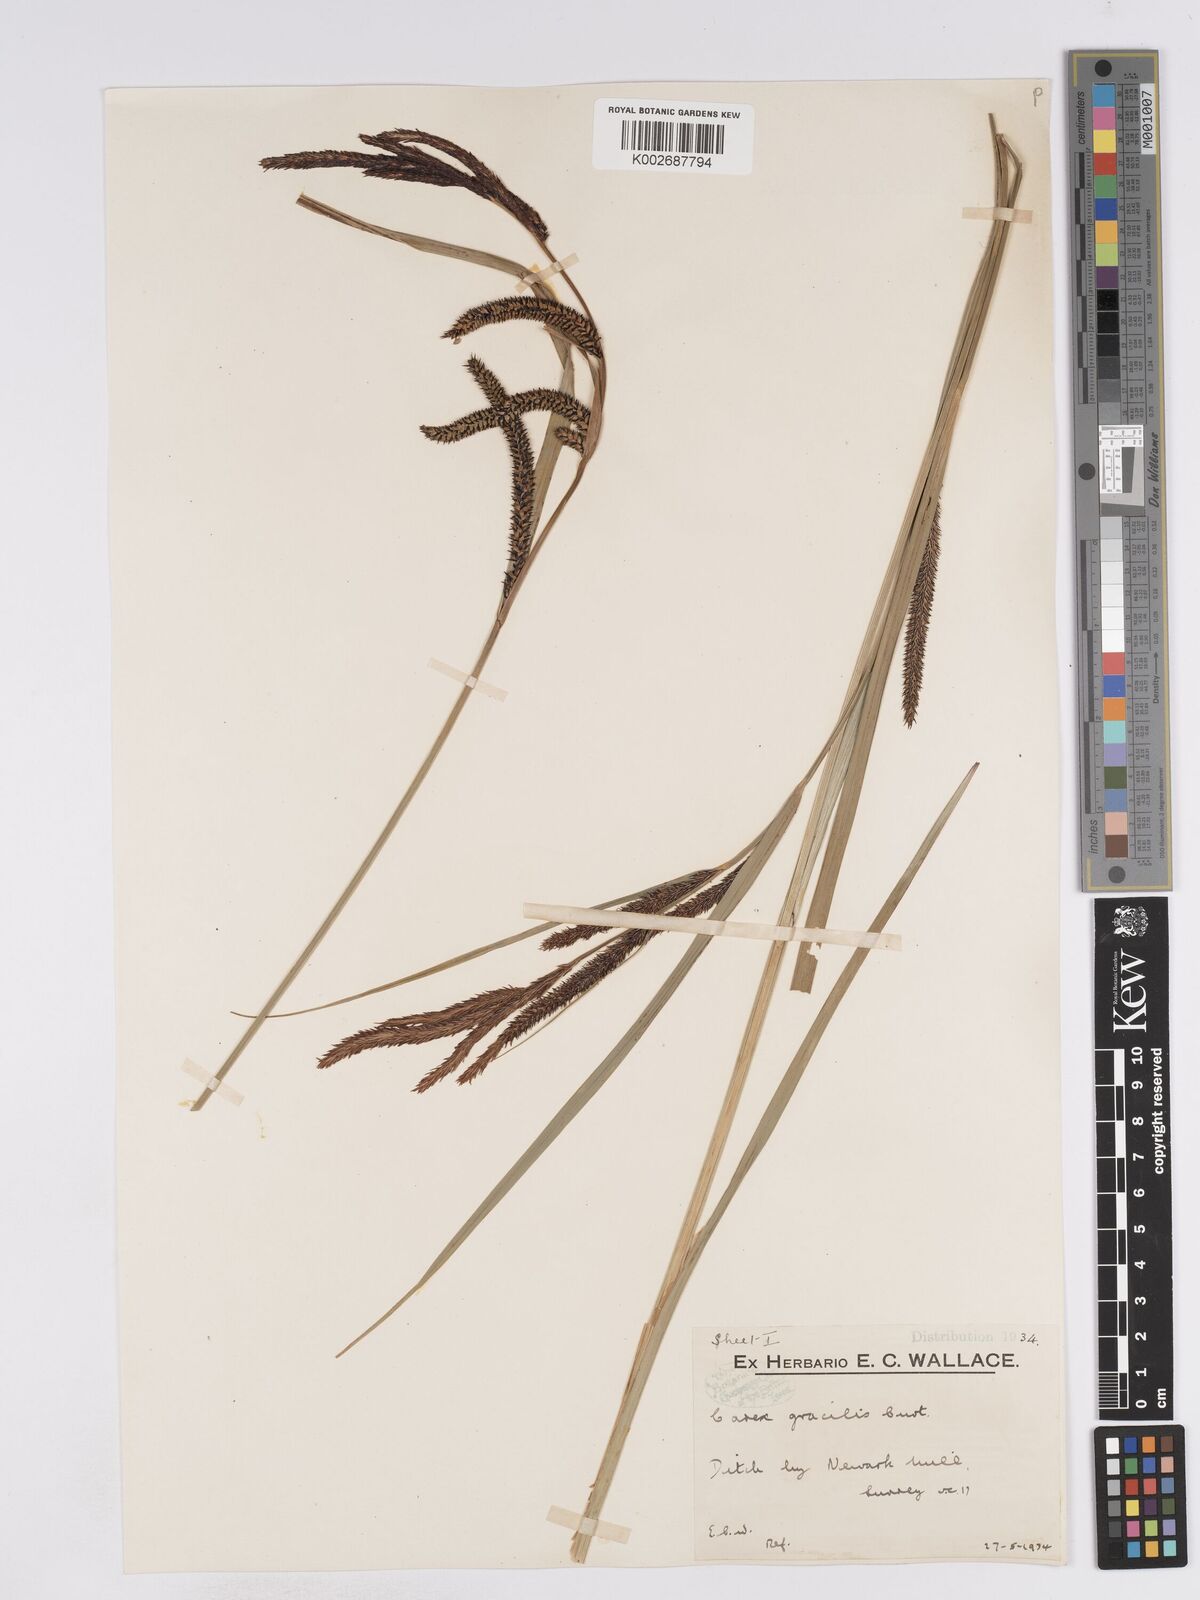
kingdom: Plantae
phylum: Tracheophyta
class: Liliopsida
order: Poales
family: Cyperaceae
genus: Carex
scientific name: Carex acuta
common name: Slender tufted-sedge
